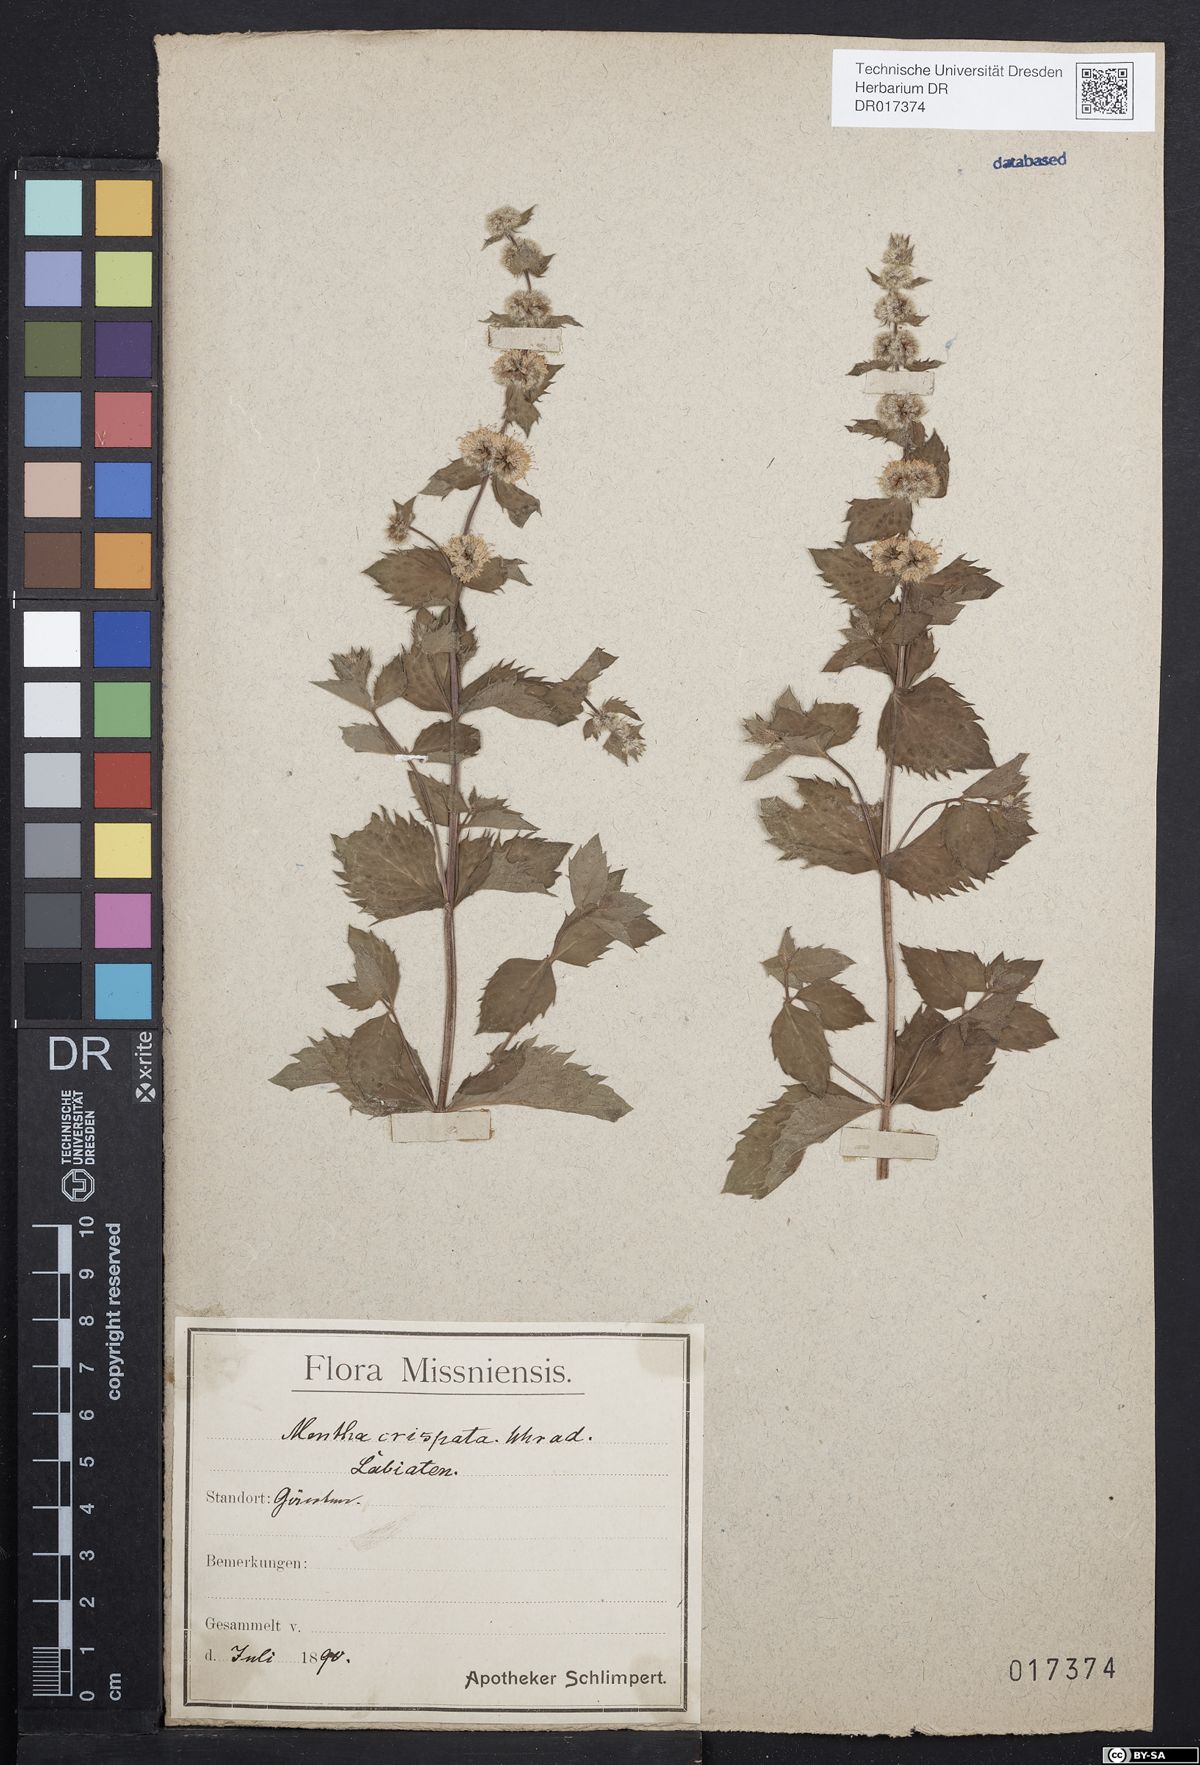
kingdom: Plantae
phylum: Tracheophyta
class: Magnoliopsida
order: Lamiales
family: Lamiaceae
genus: Mentha
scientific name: Mentha verticillata
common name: Mint
